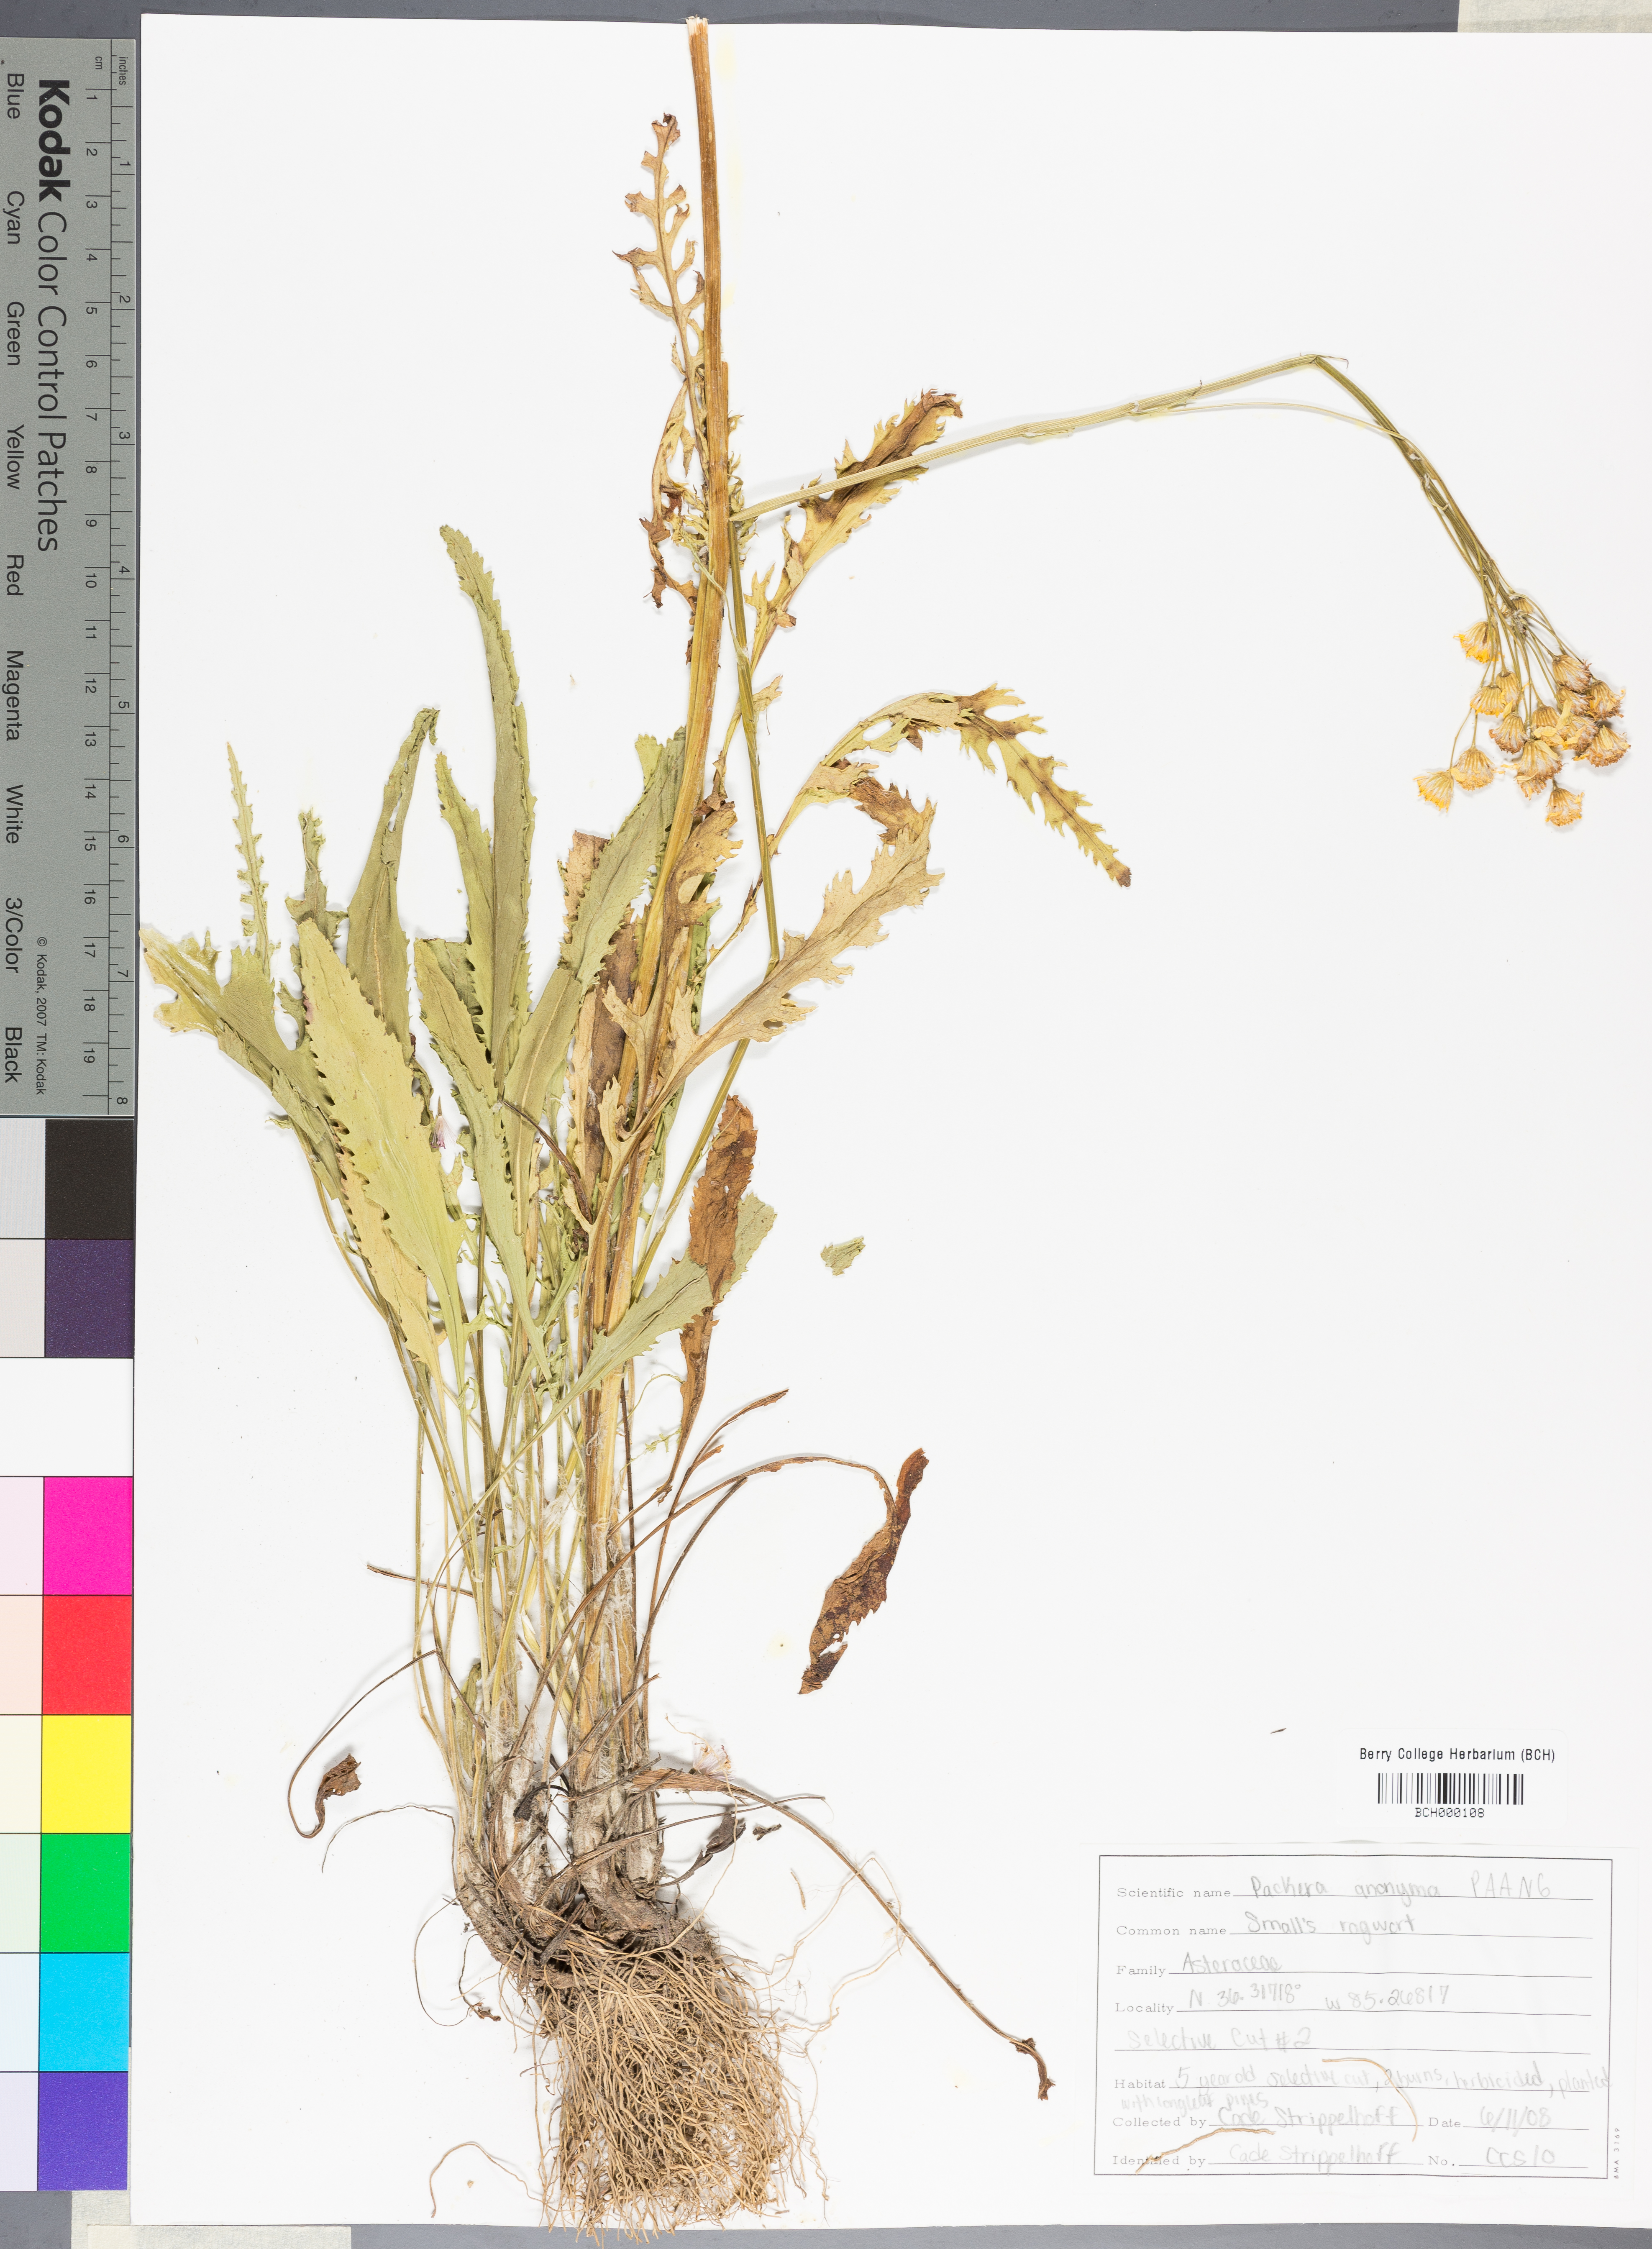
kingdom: Plantae
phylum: Tracheophyta
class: Magnoliopsida
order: Asterales
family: Asteraceae
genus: Packera
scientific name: Packera anonyma
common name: Small ragwort
